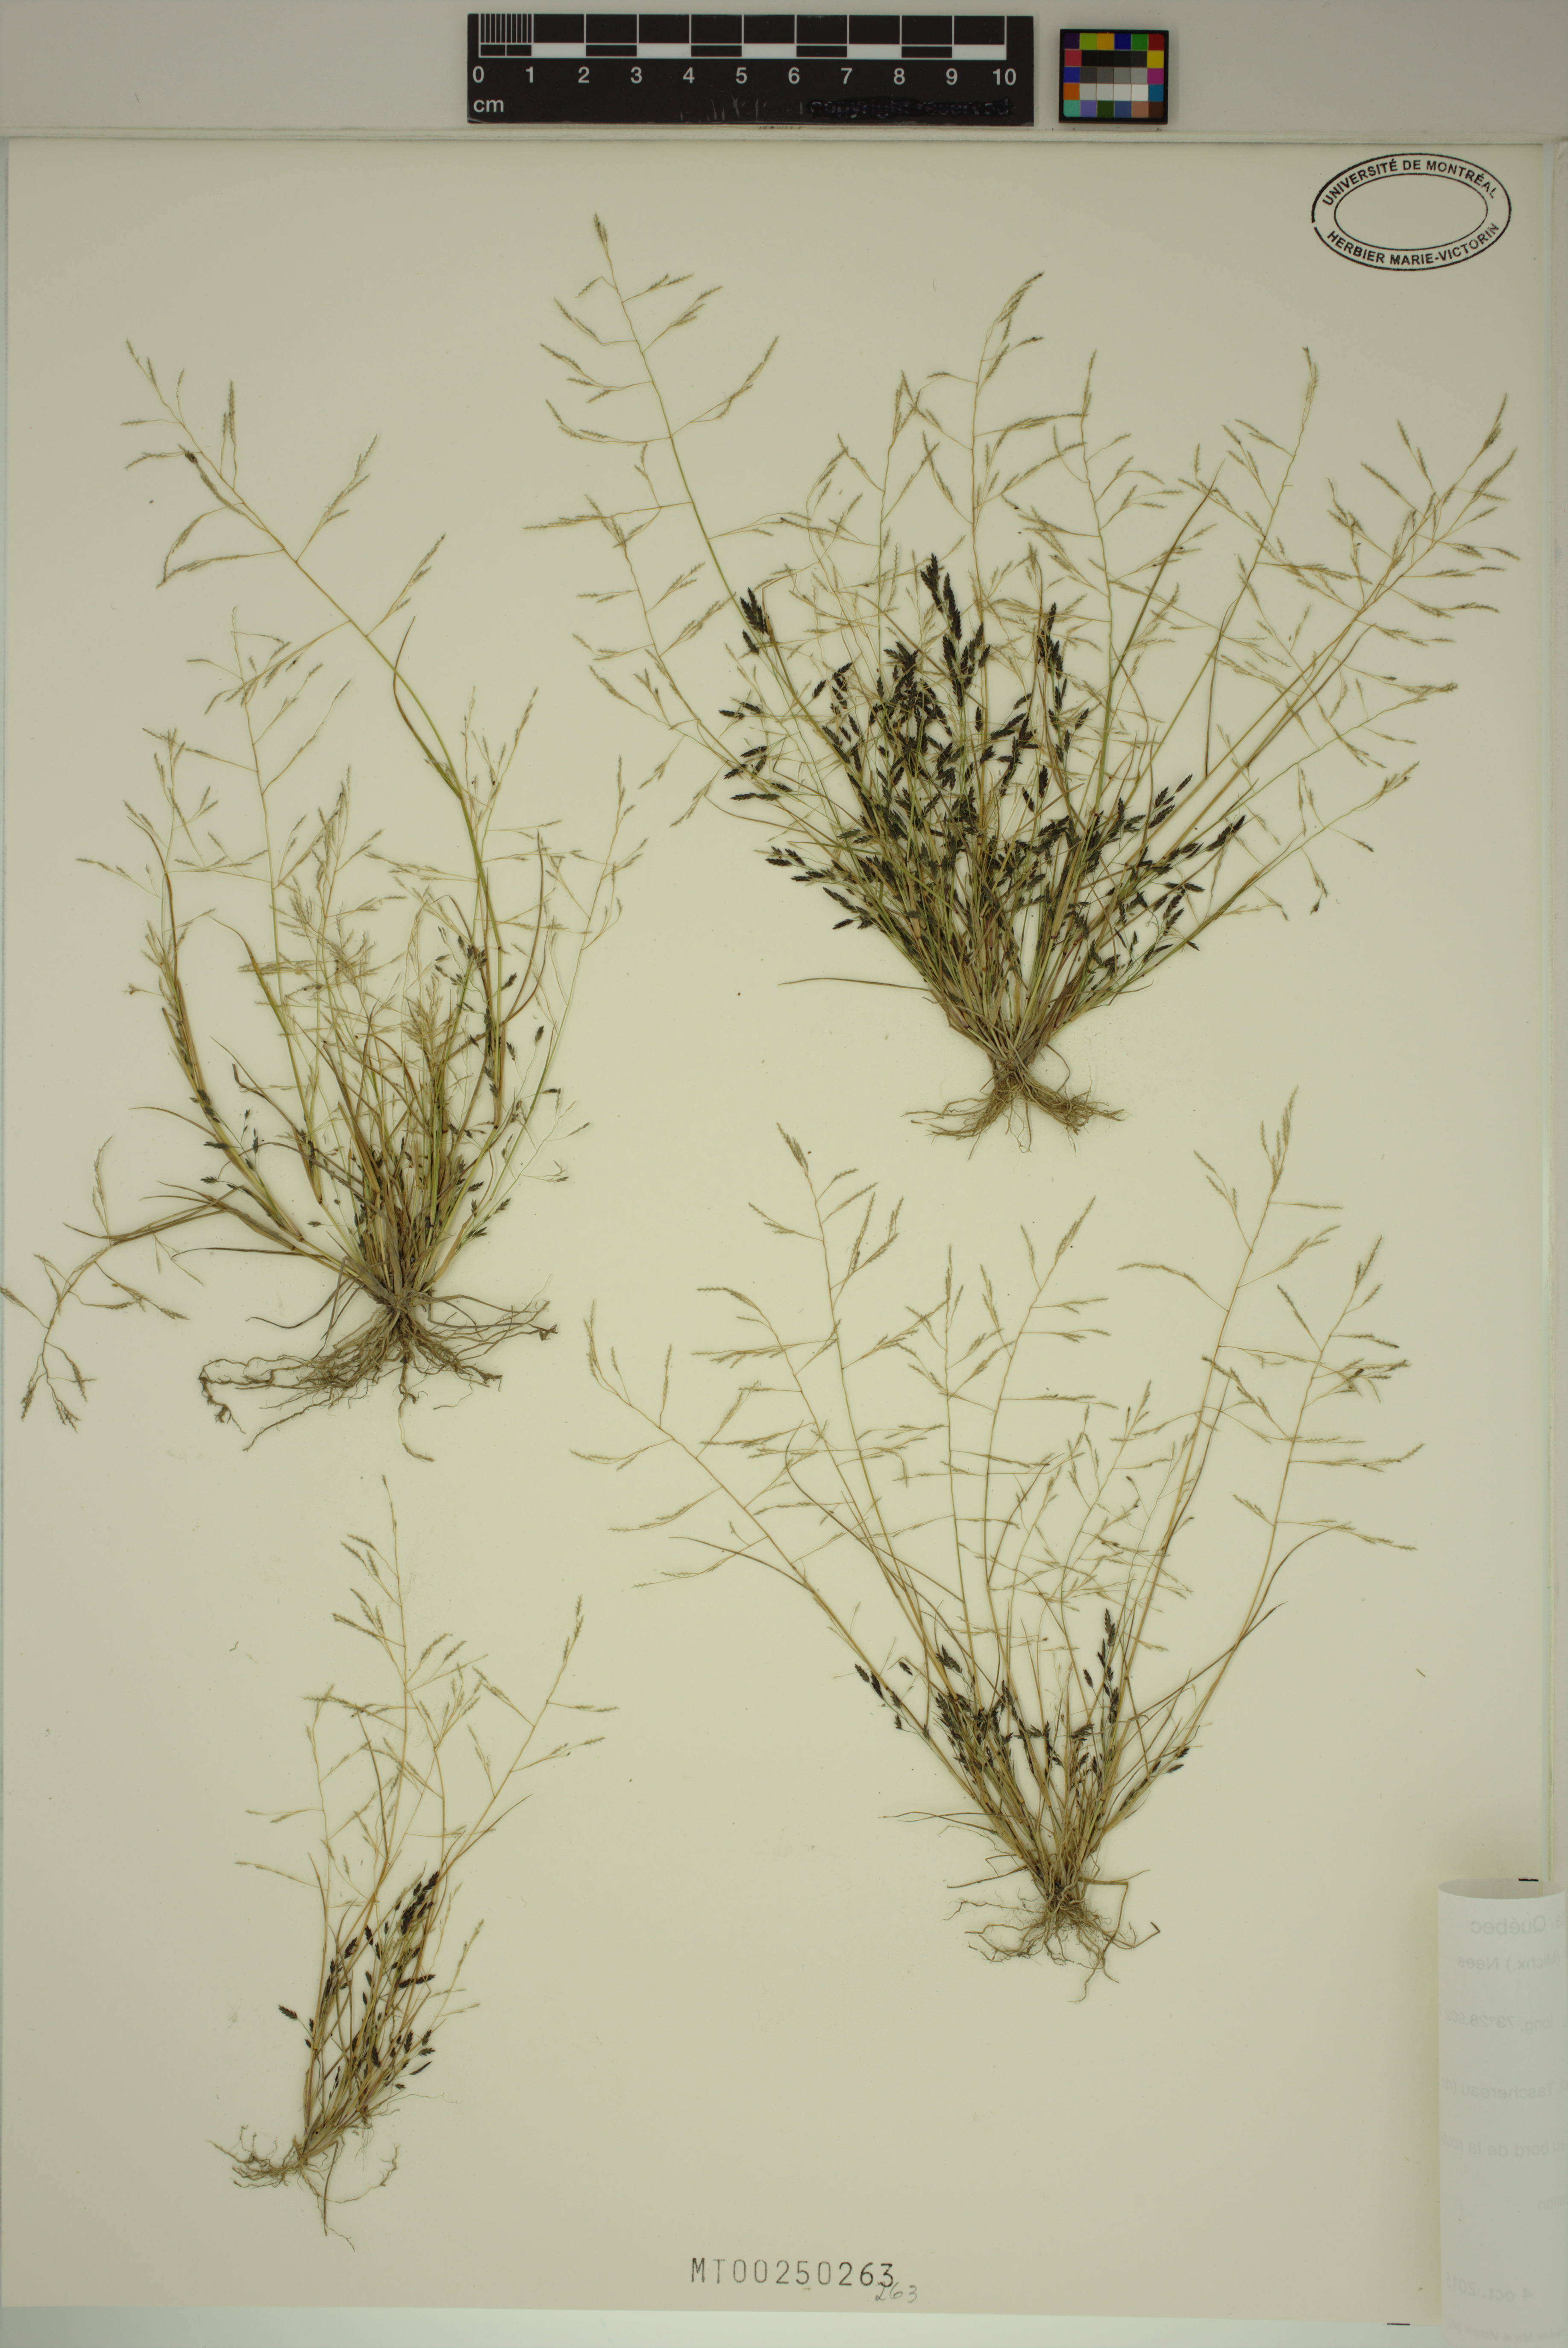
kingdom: Plantae
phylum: Tracheophyta
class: Liliopsida
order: Poales
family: Poaceae
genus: Eragrostis
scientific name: Eragrostis pectinacea
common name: Tufted lovegrass
